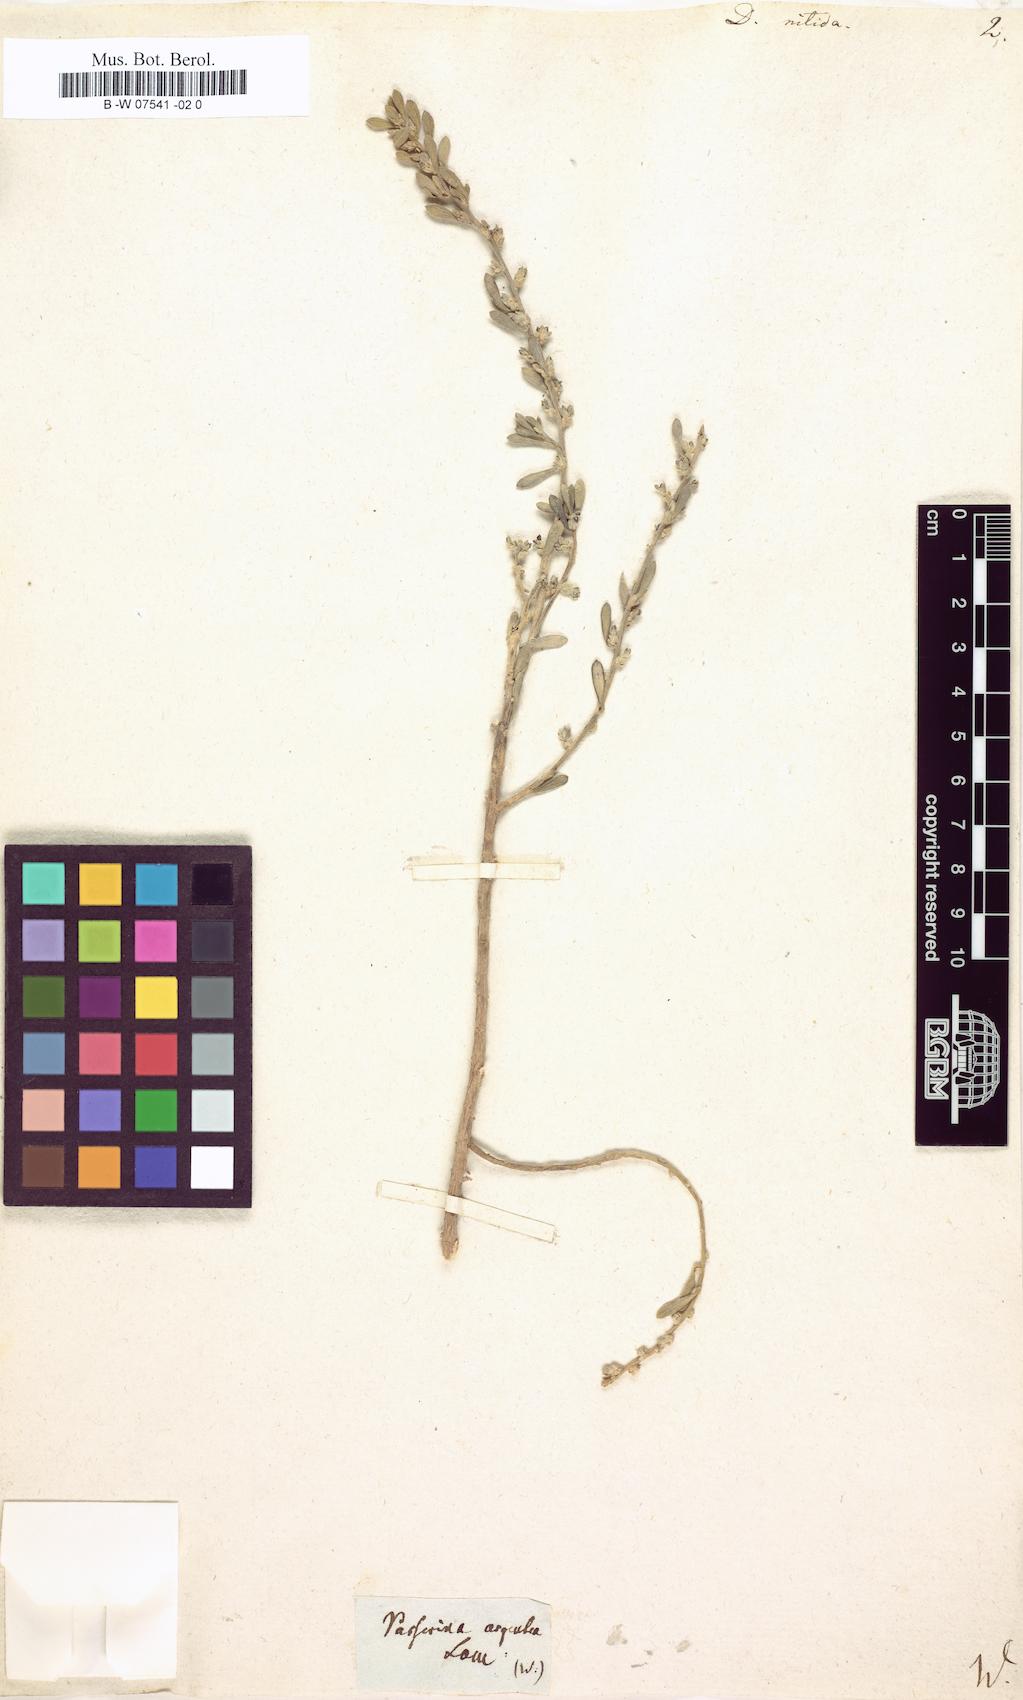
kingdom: Plantae
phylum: Tracheophyta
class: Magnoliopsida
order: Malvales
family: Thymelaeaceae
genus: Thymelaea
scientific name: Thymelaea argentata
